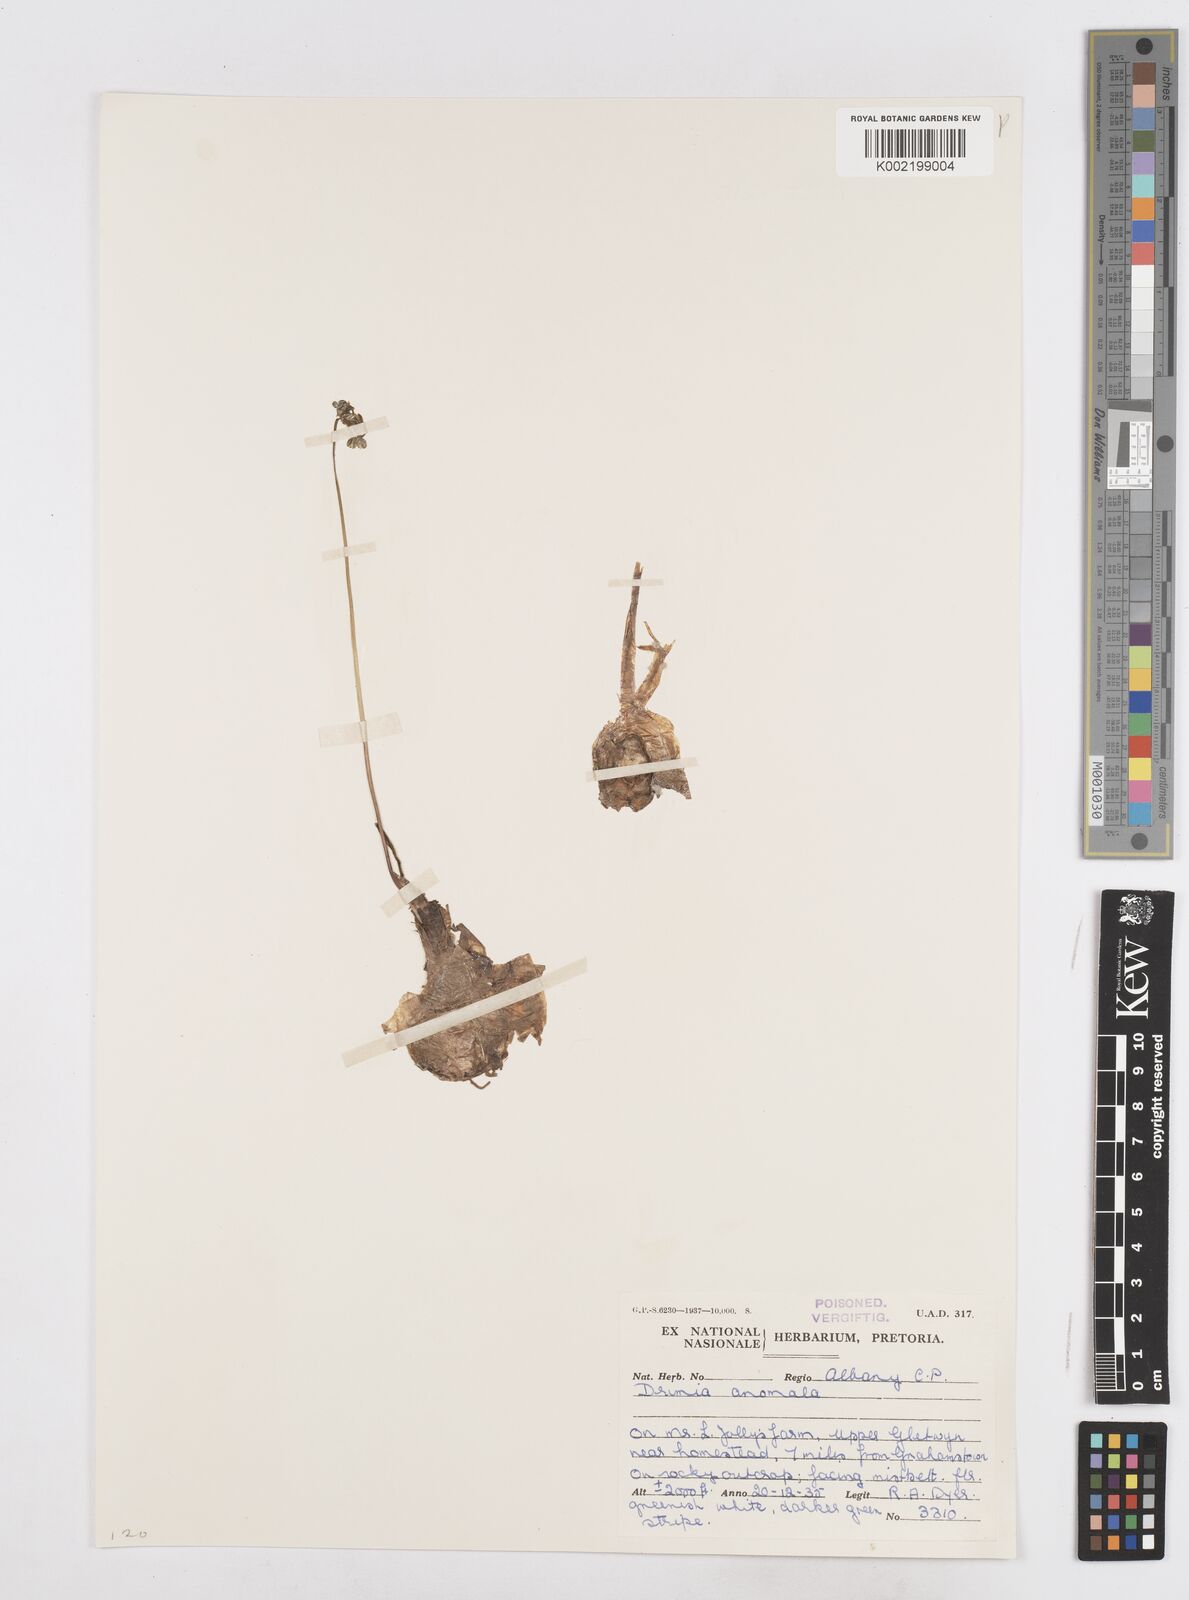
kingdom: Plantae
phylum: Tracheophyta
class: Liliopsida
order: Asparagales
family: Asparagaceae
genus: Drimia
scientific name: Drimia anomala
